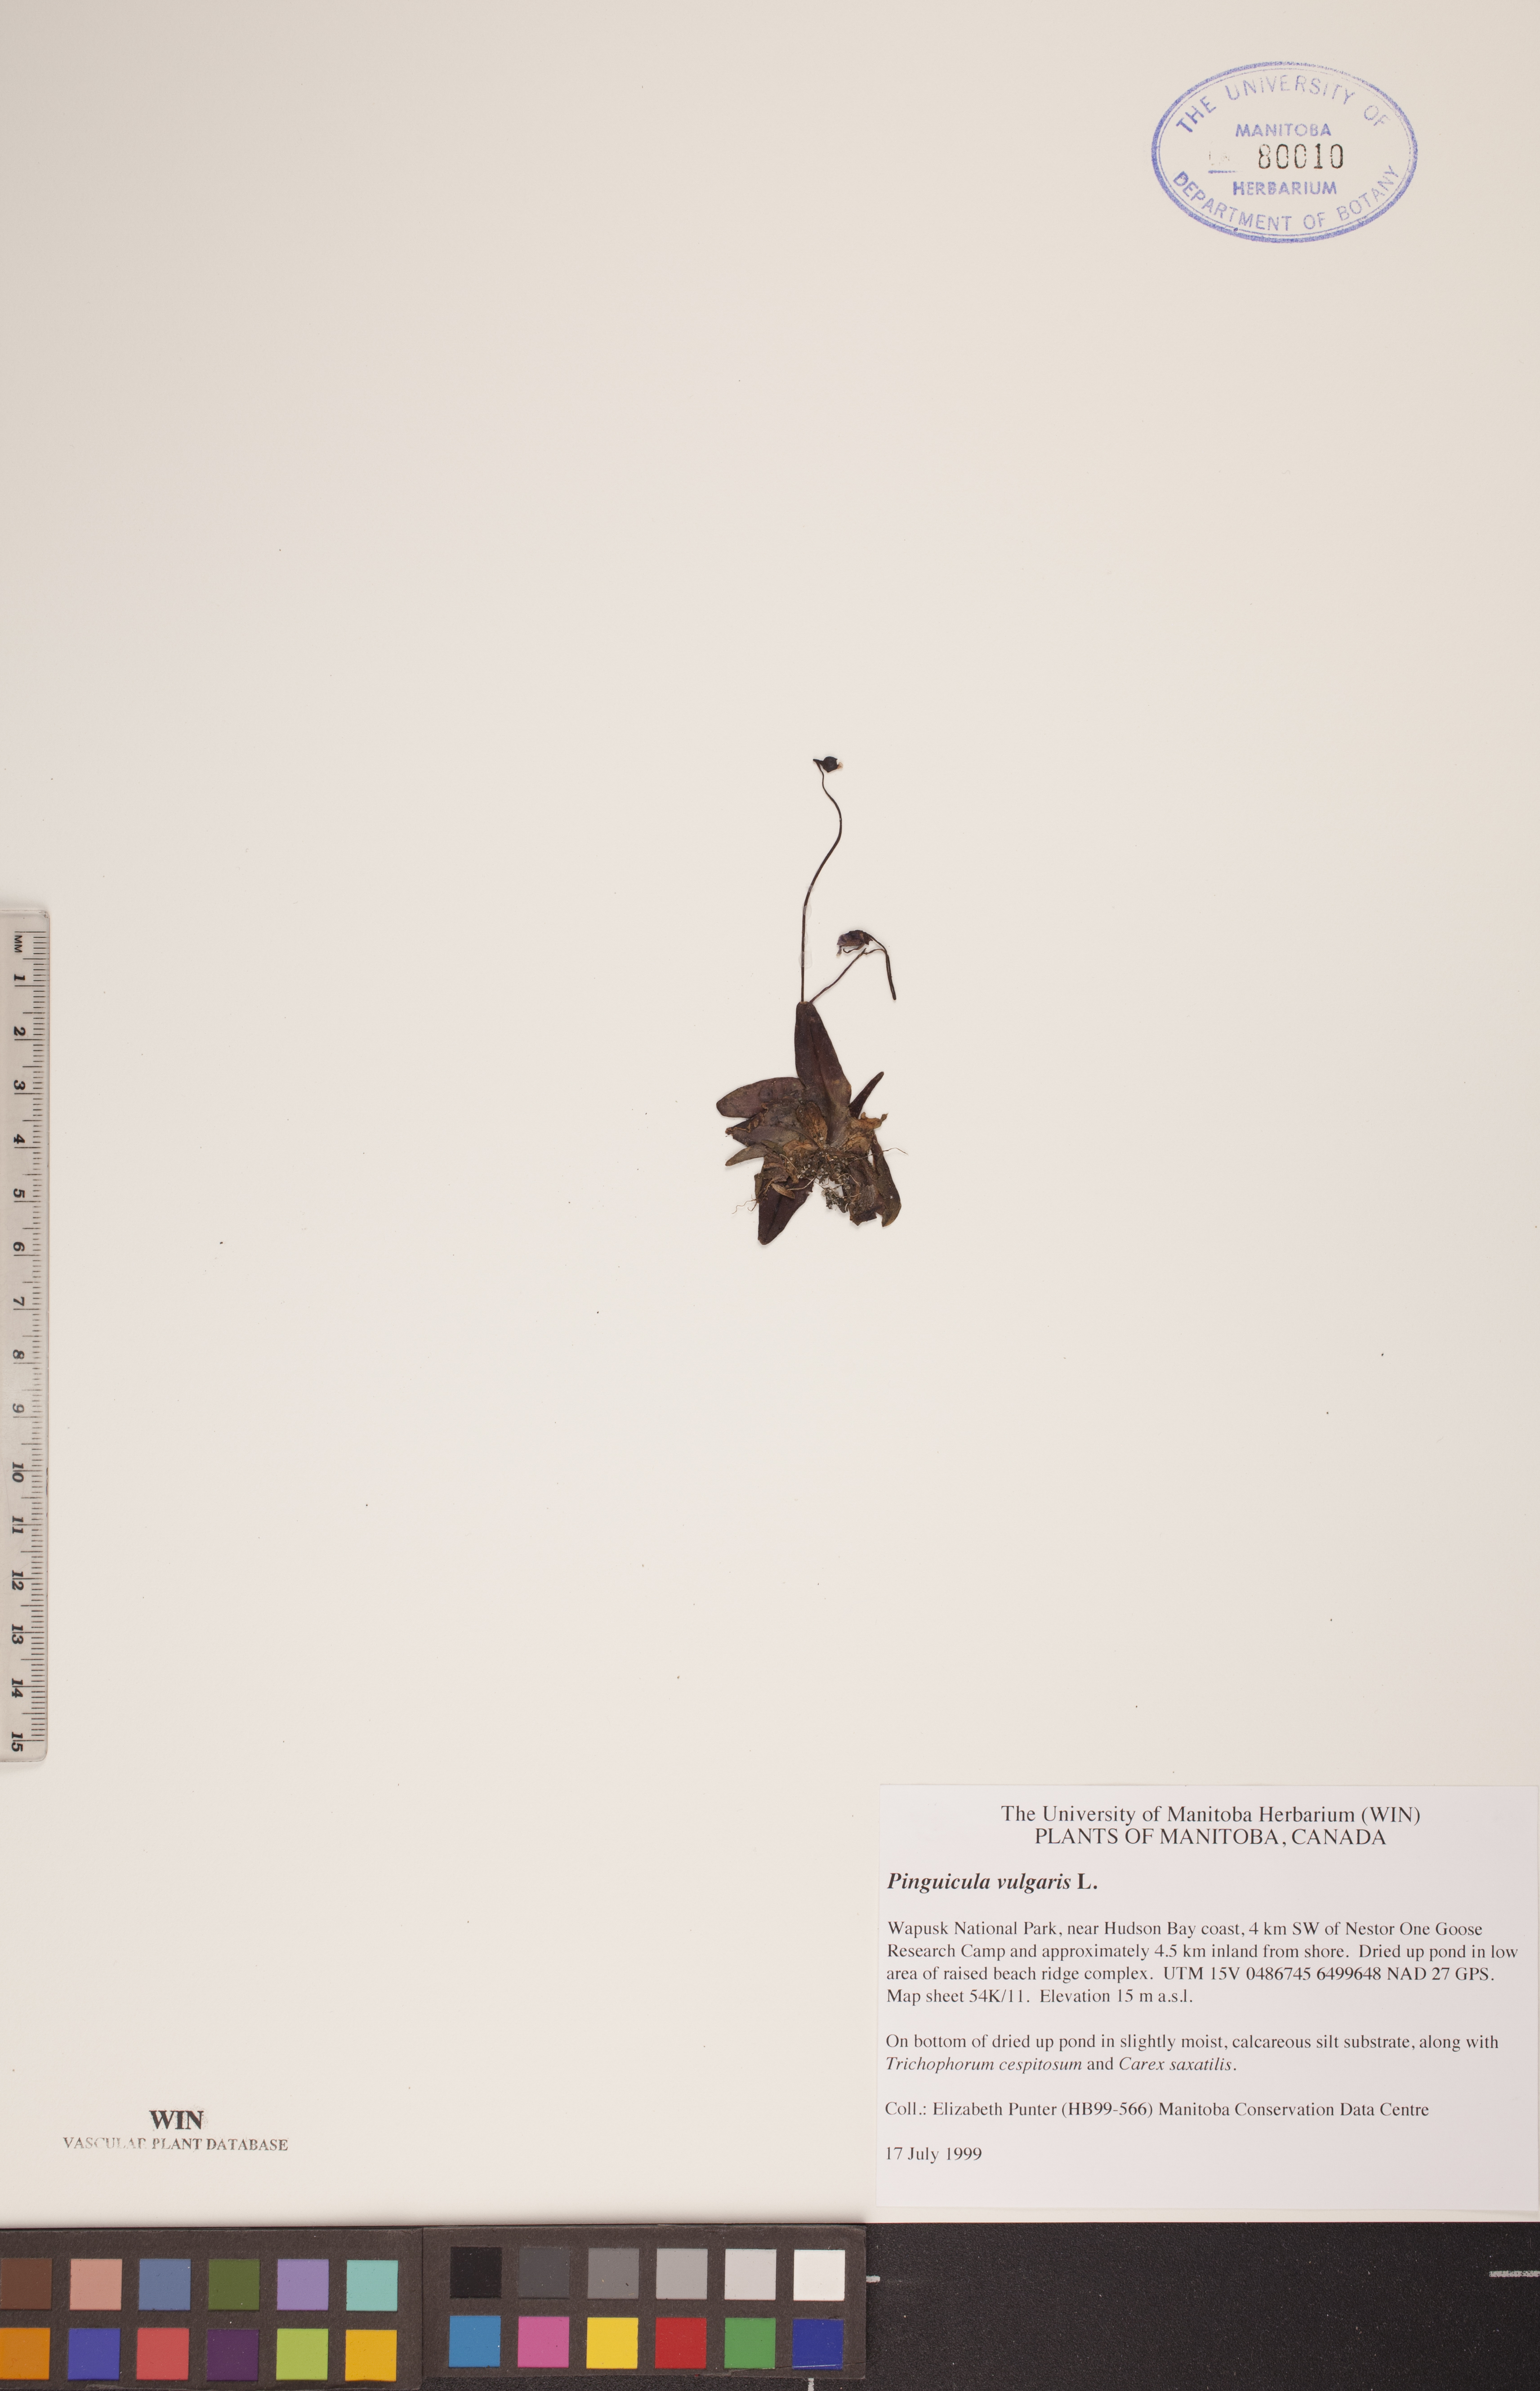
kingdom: Plantae
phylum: Tracheophyta
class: Magnoliopsida
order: Lamiales
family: Lentibulariaceae
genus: Pinguicula
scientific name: Pinguicula vulgaris
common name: Common butterwort
